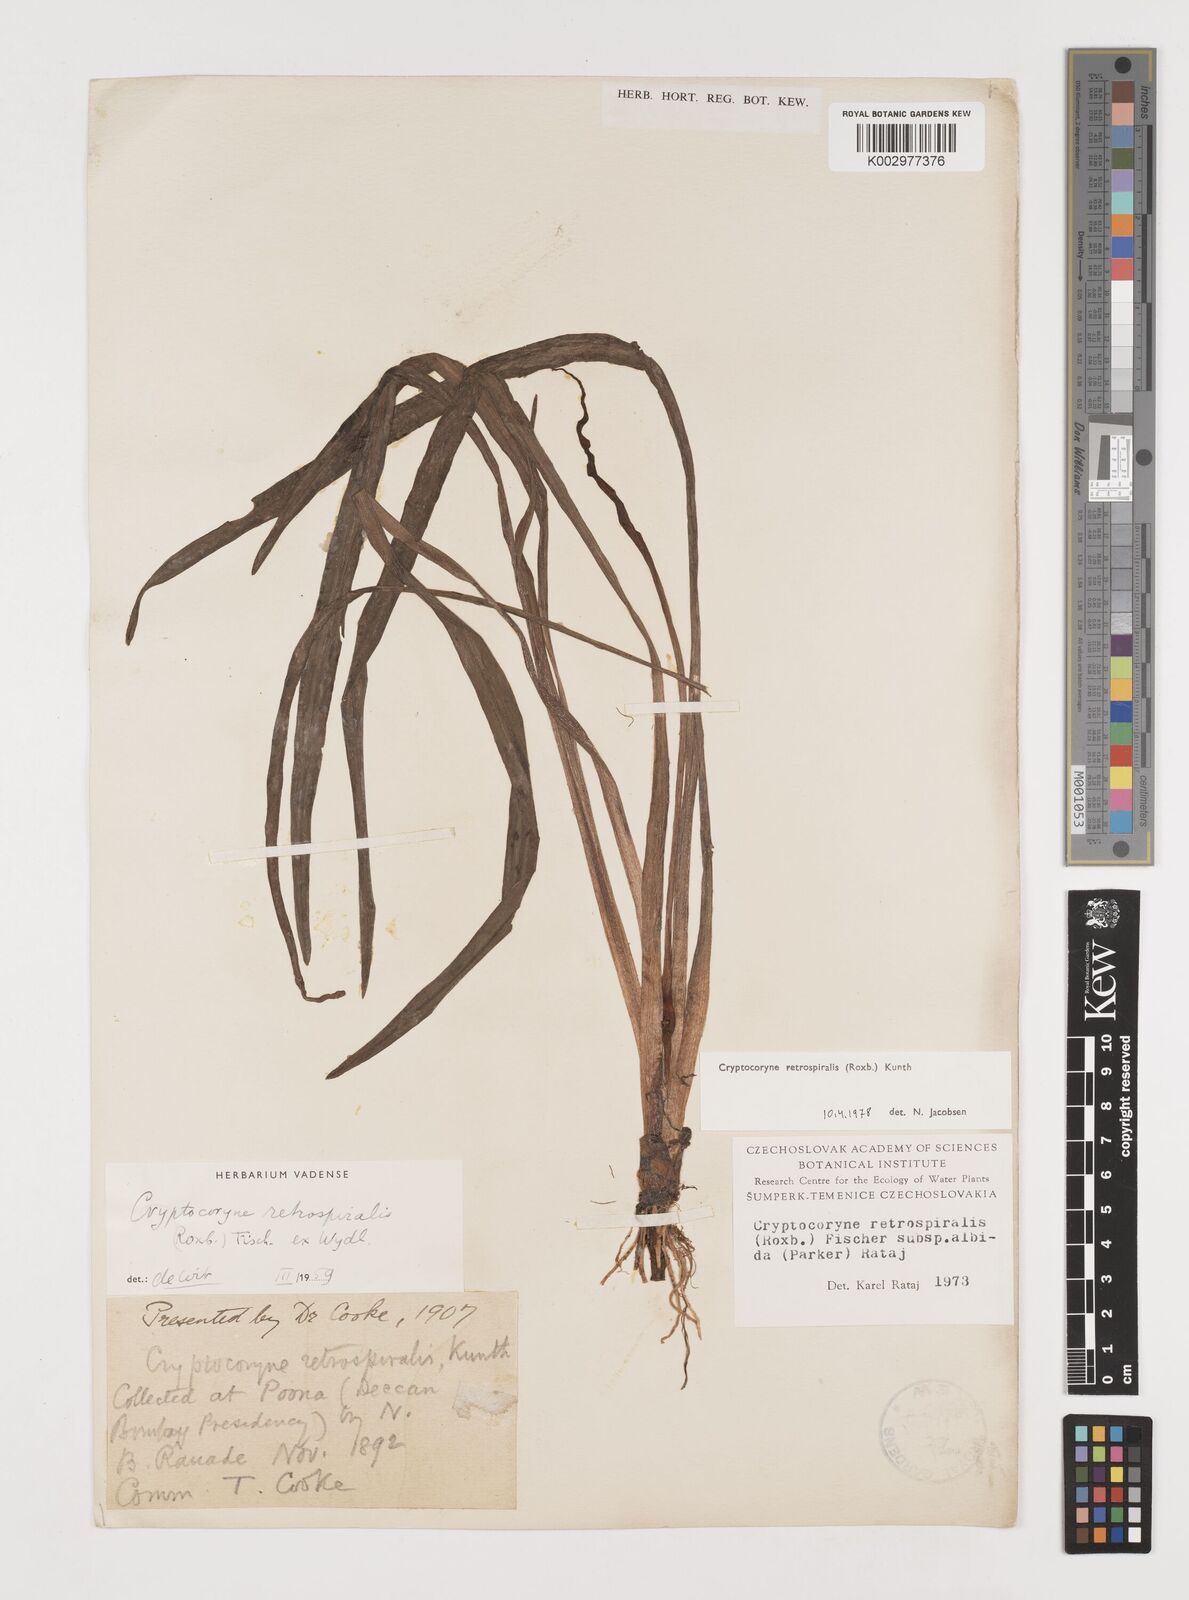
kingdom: Plantae
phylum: Tracheophyta
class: Liliopsida
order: Alismatales
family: Araceae
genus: Cryptocoryne
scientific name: Cryptocoryne retrospiralis
